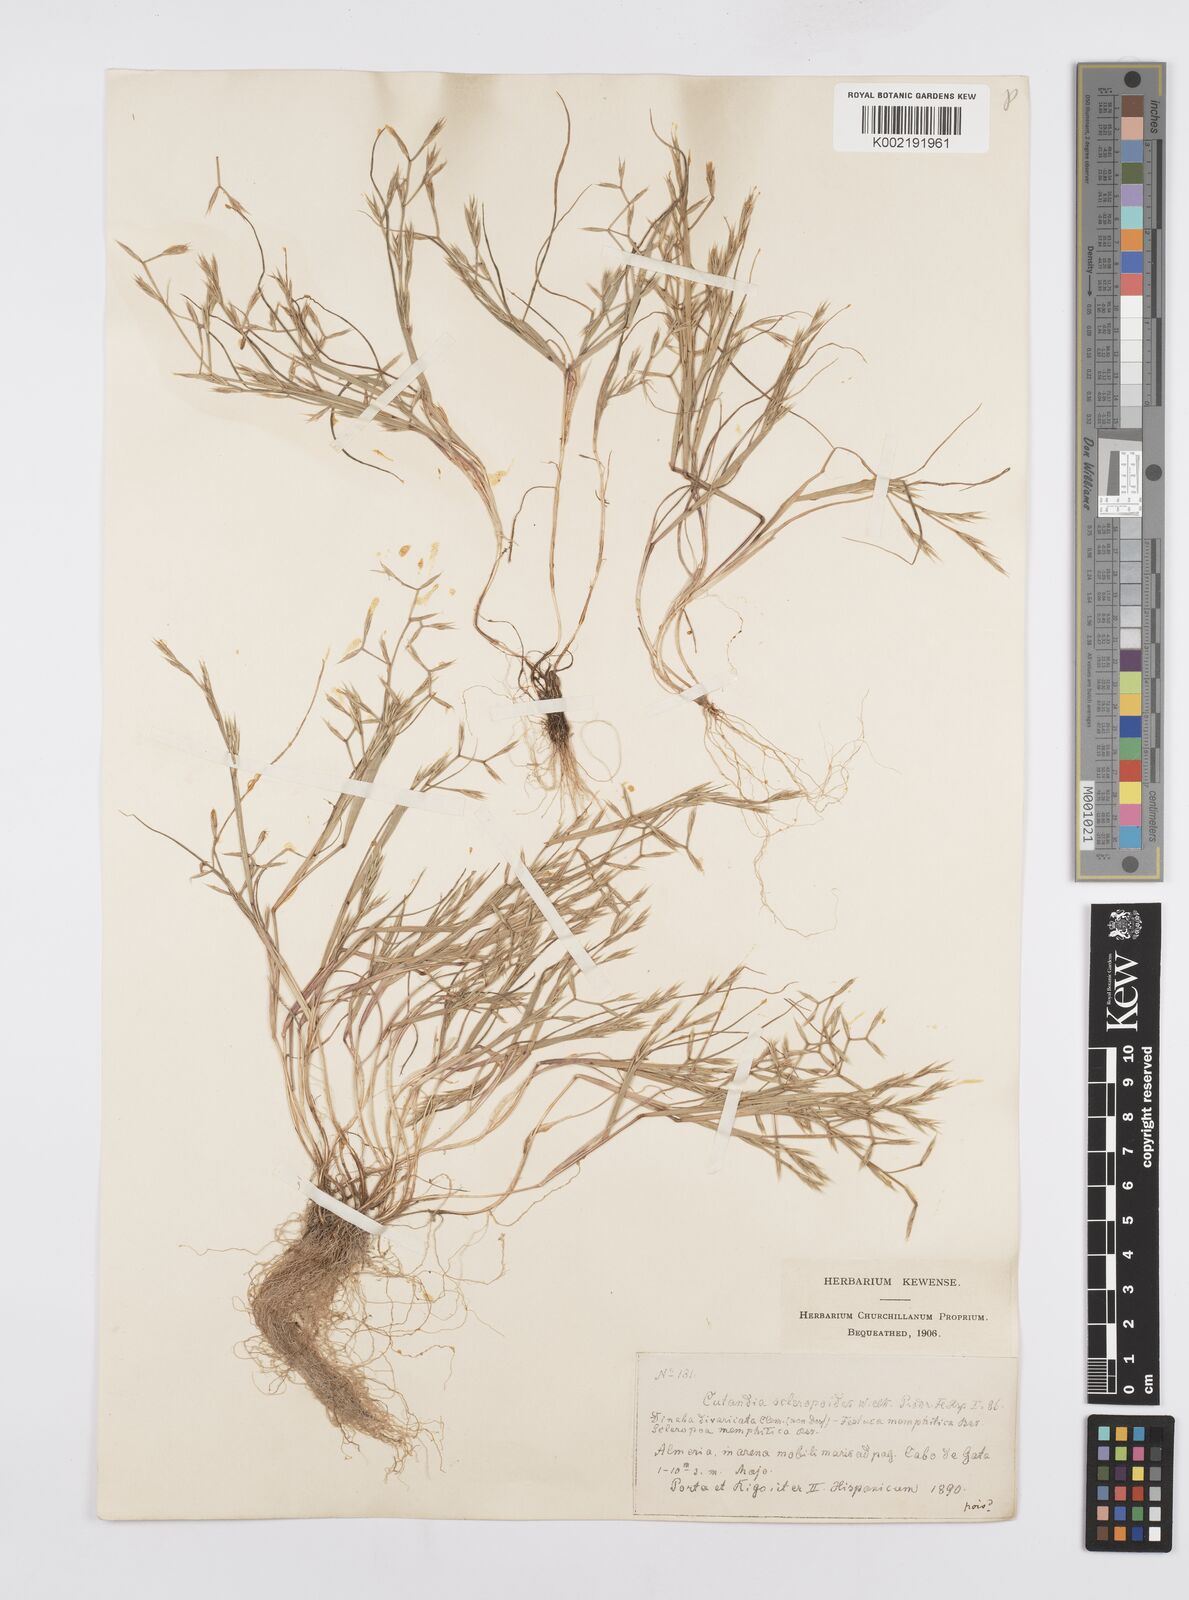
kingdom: Plantae
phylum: Tracheophyta
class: Liliopsida
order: Poales
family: Poaceae
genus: Cutandia
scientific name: Cutandia memphitica
